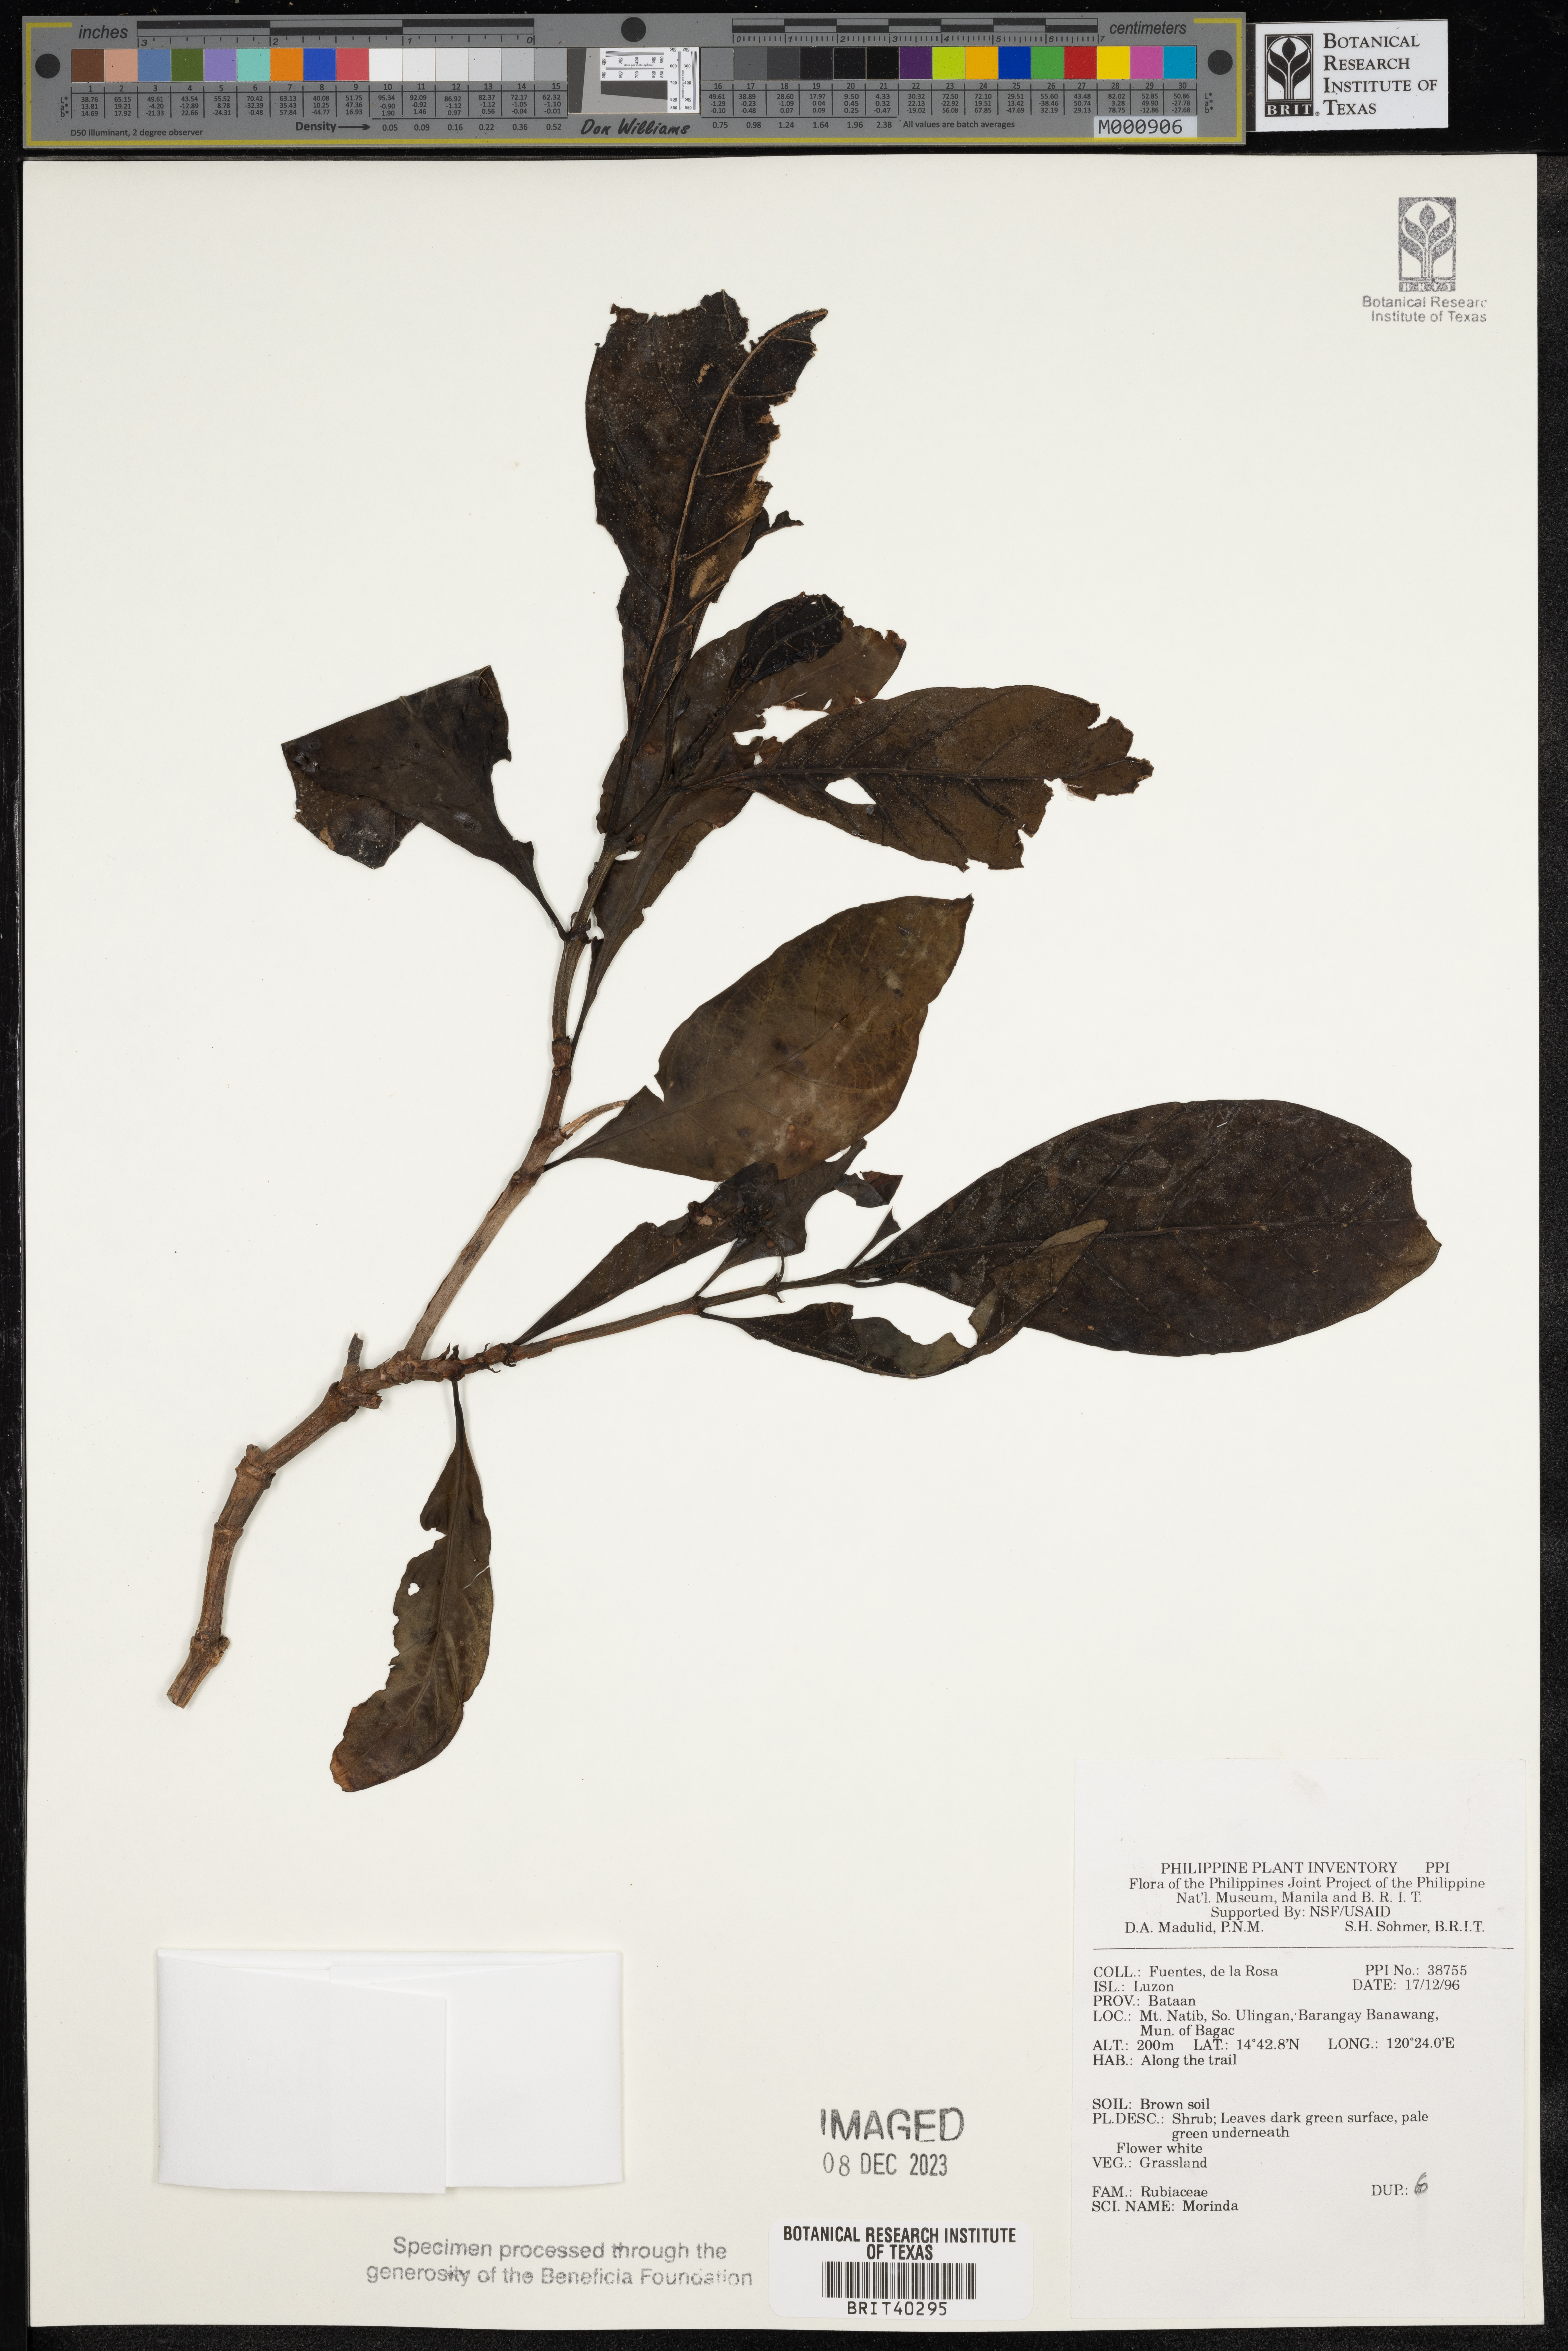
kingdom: Plantae
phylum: Tracheophyta
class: Magnoliopsida
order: Gentianales
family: Rubiaceae
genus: Morinda
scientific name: Morinda
